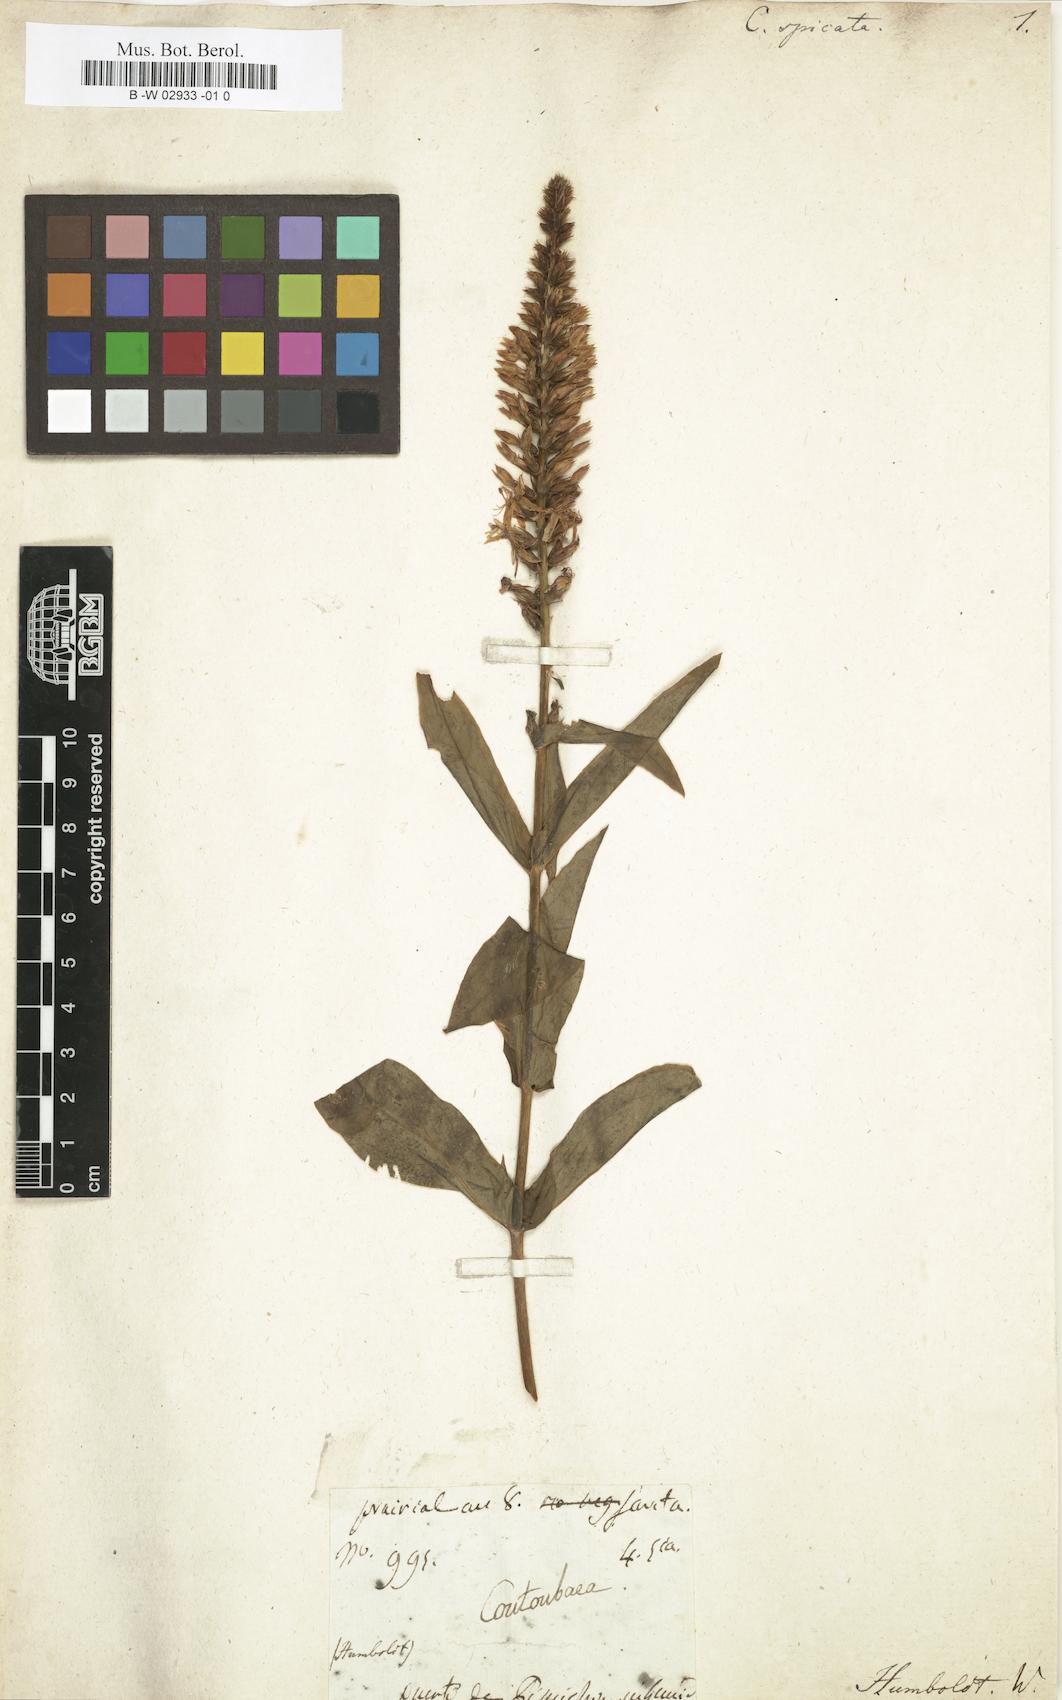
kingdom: Plantae
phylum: Tracheophyta
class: Magnoliopsida
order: Gentianales
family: Gentianaceae
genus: Coutoubea
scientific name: Coutoubea spicata
